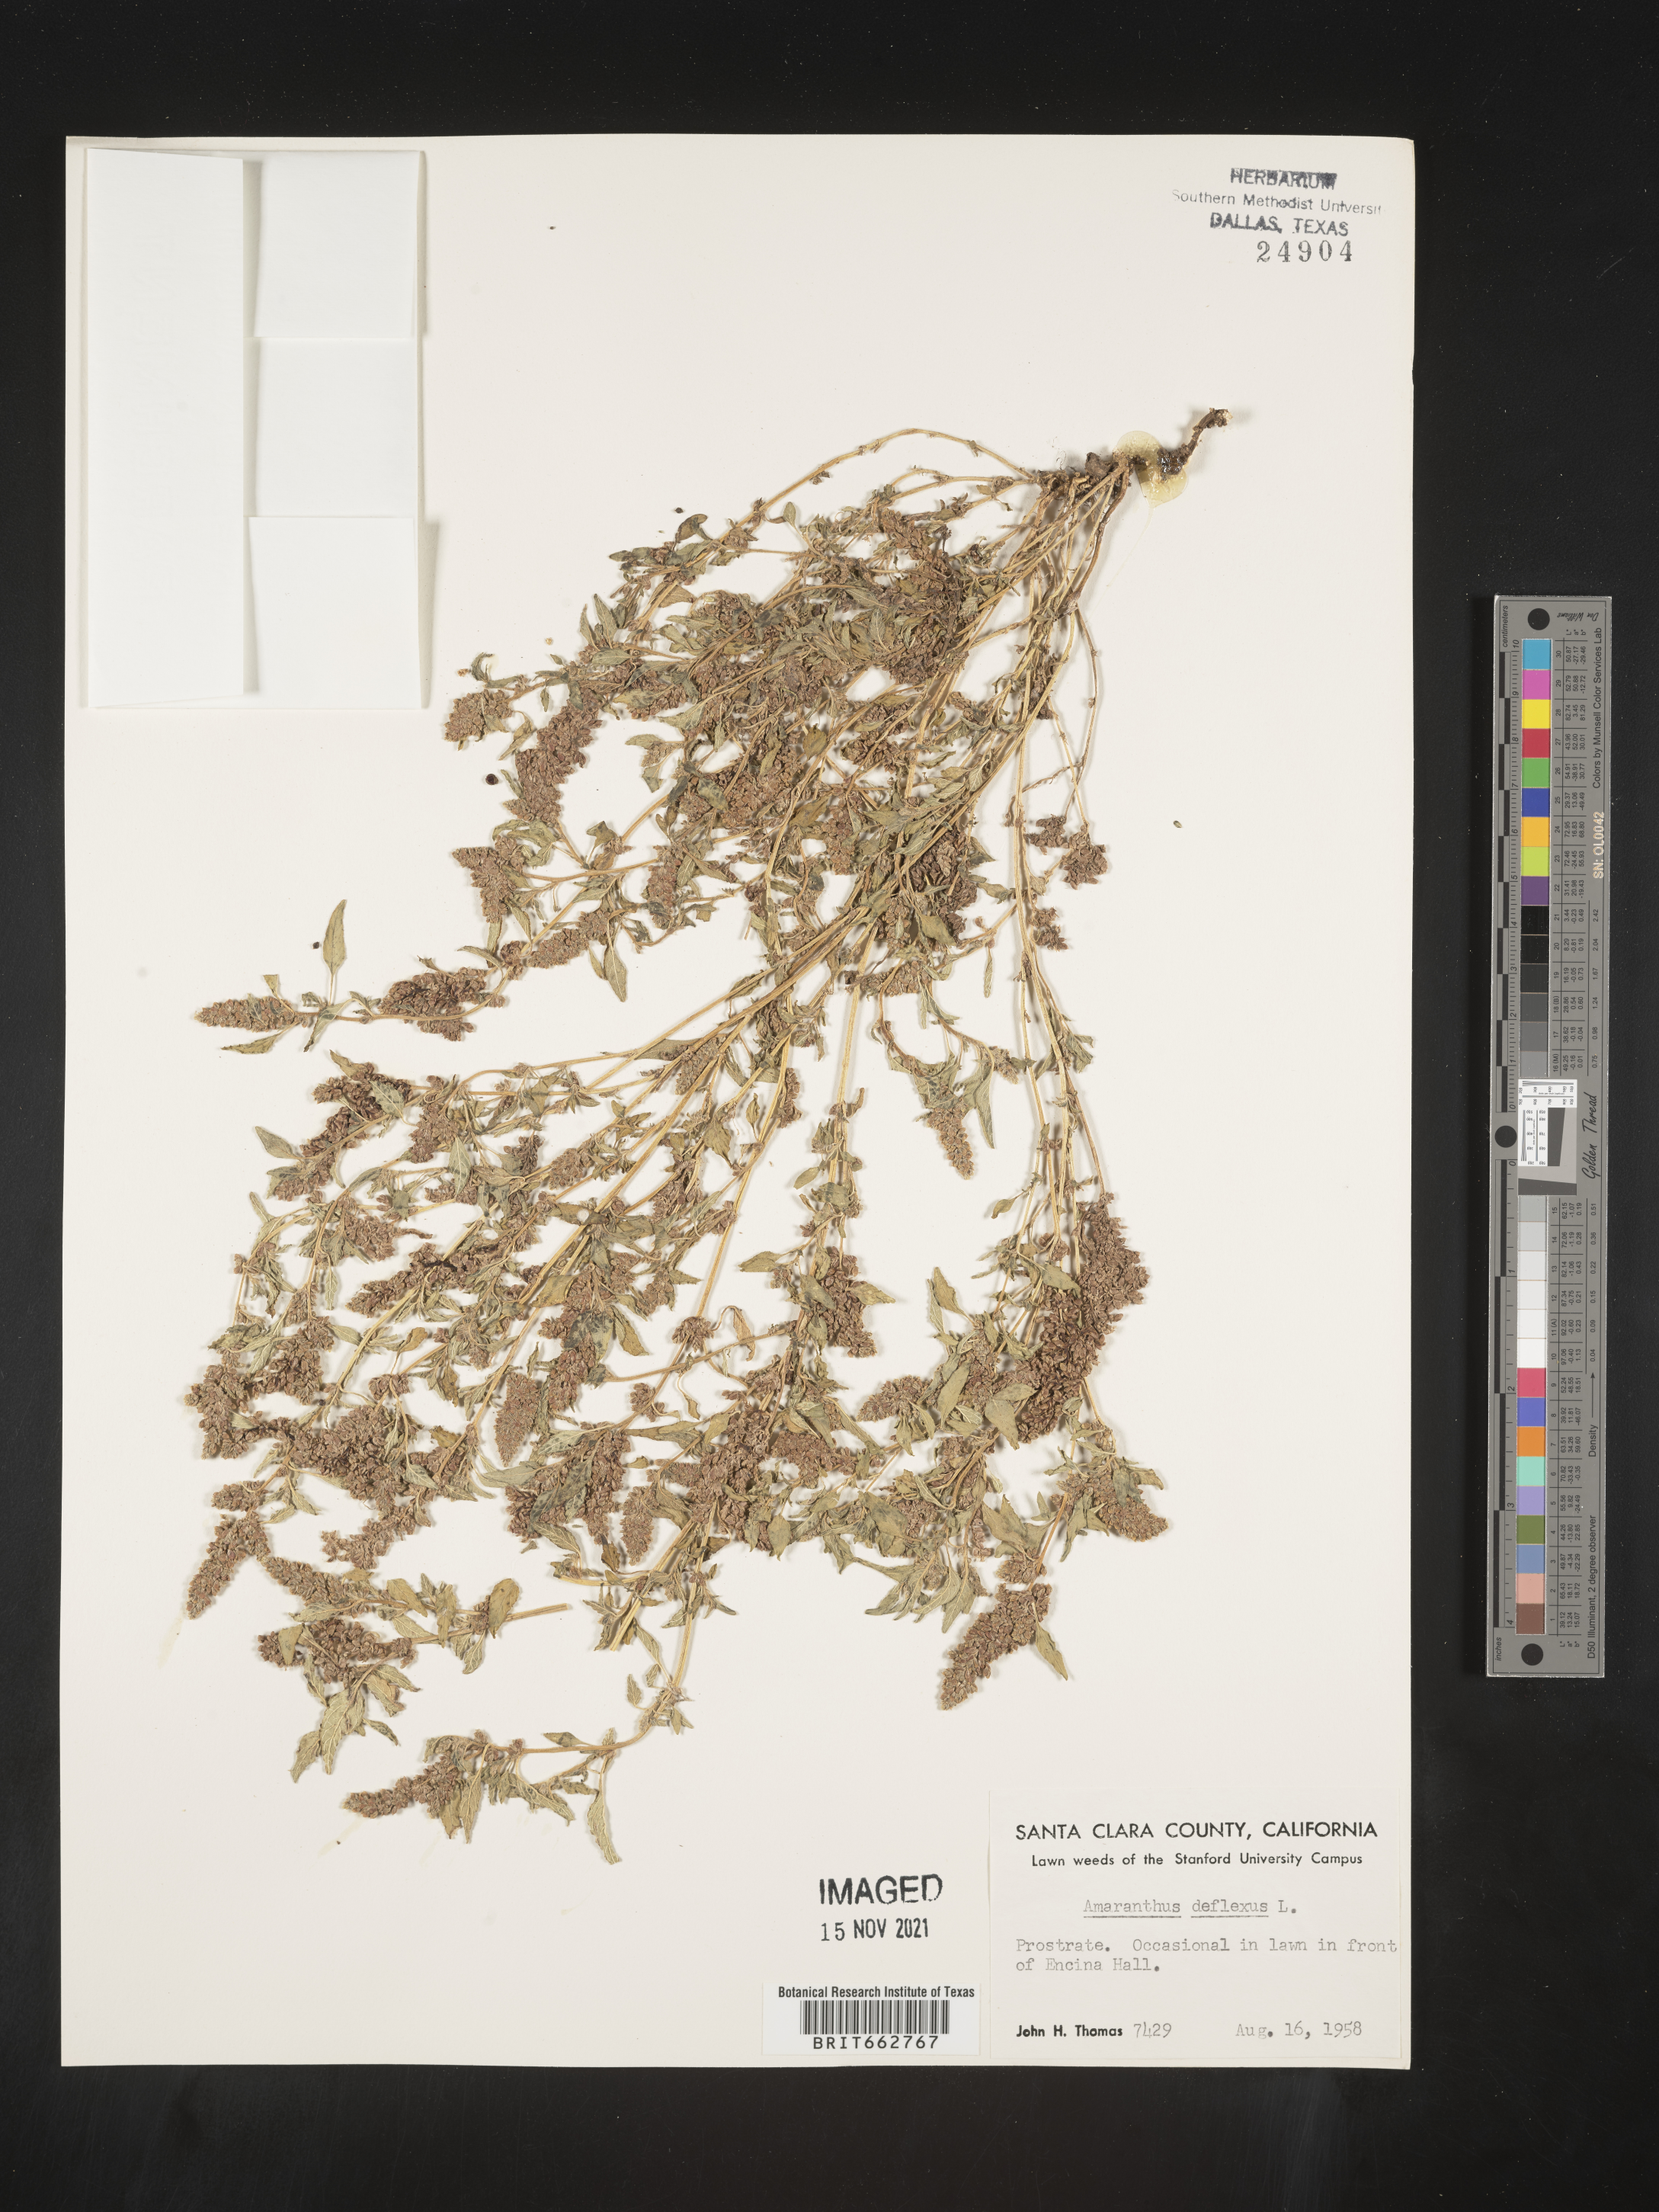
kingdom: Plantae
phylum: Tracheophyta
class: Magnoliopsida
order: Caryophyllales
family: Amaranthaceae
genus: Amaranthus
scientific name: Amaranthus
